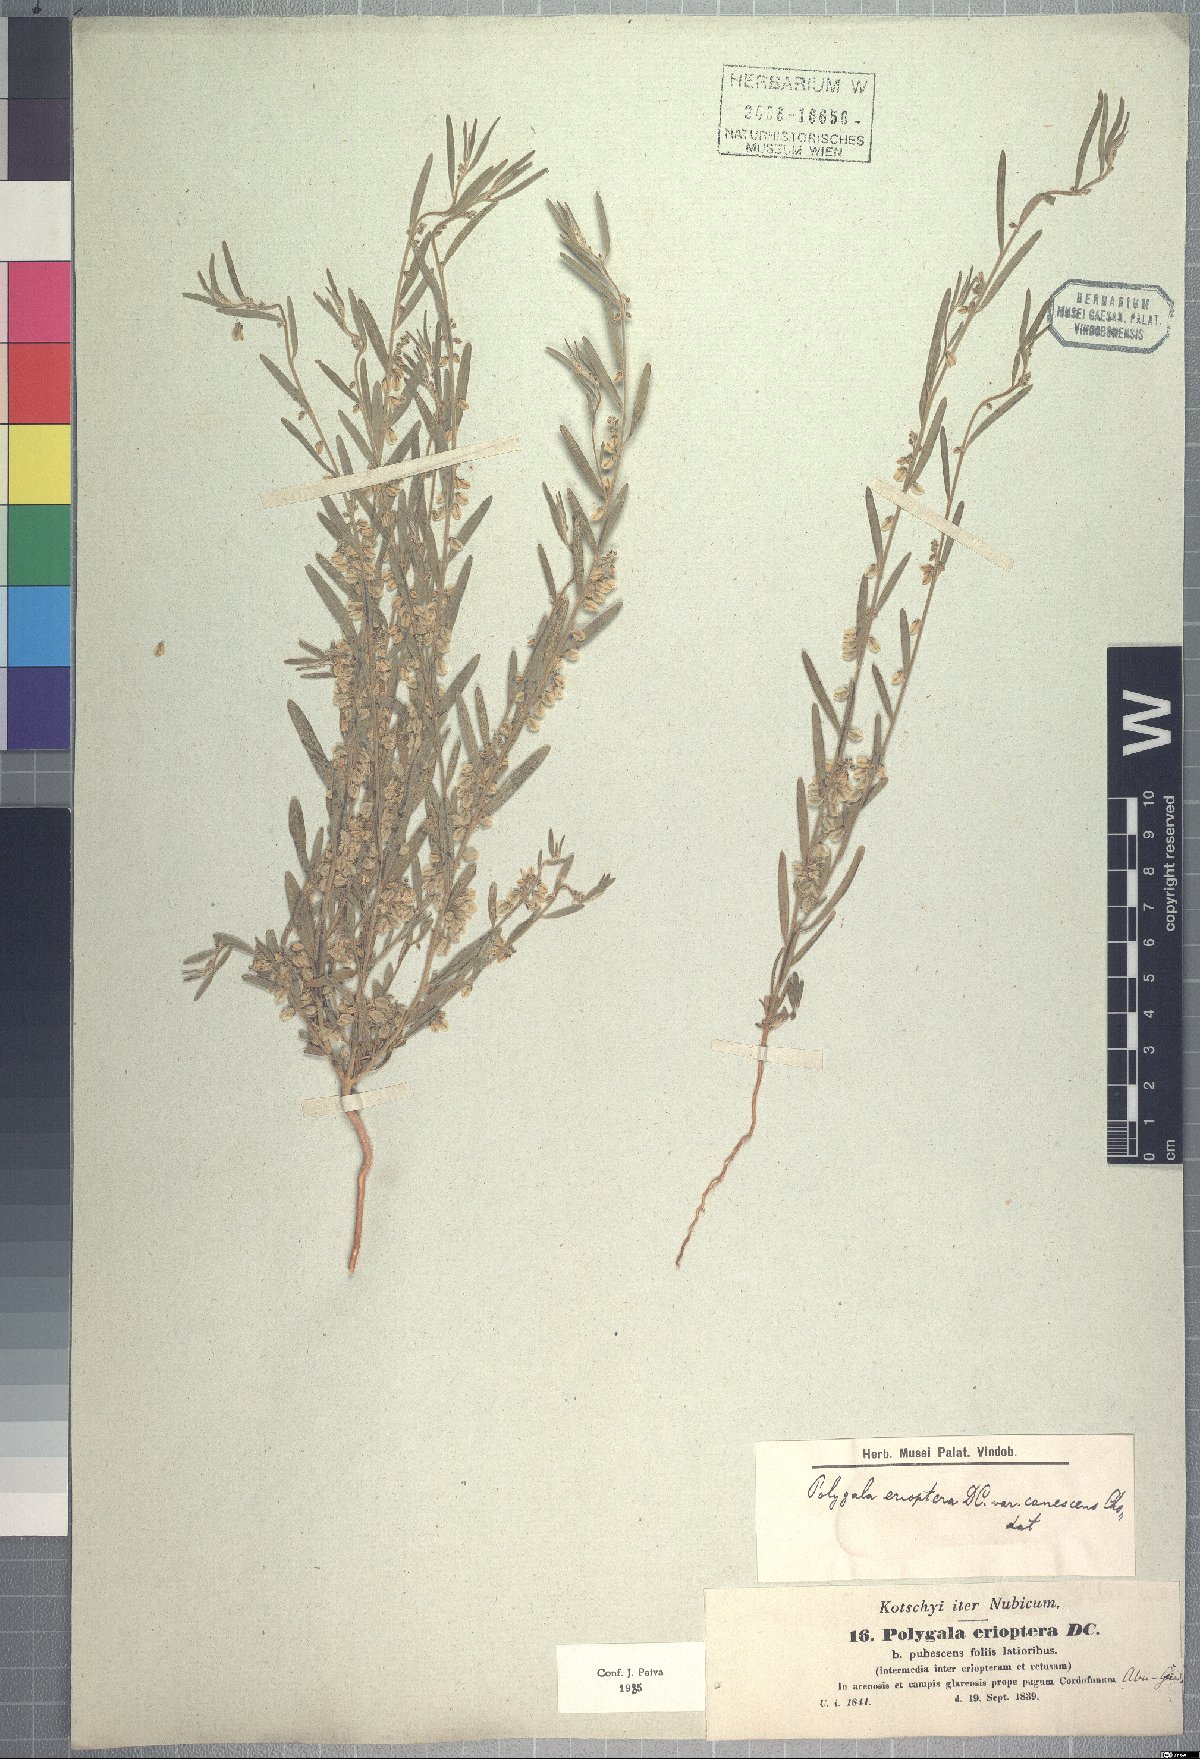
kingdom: Plantae
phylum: Tracheophyta
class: Magnoliopsida
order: Fabales
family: Polygalaceae
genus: Polygala
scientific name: Polygala erioptera
